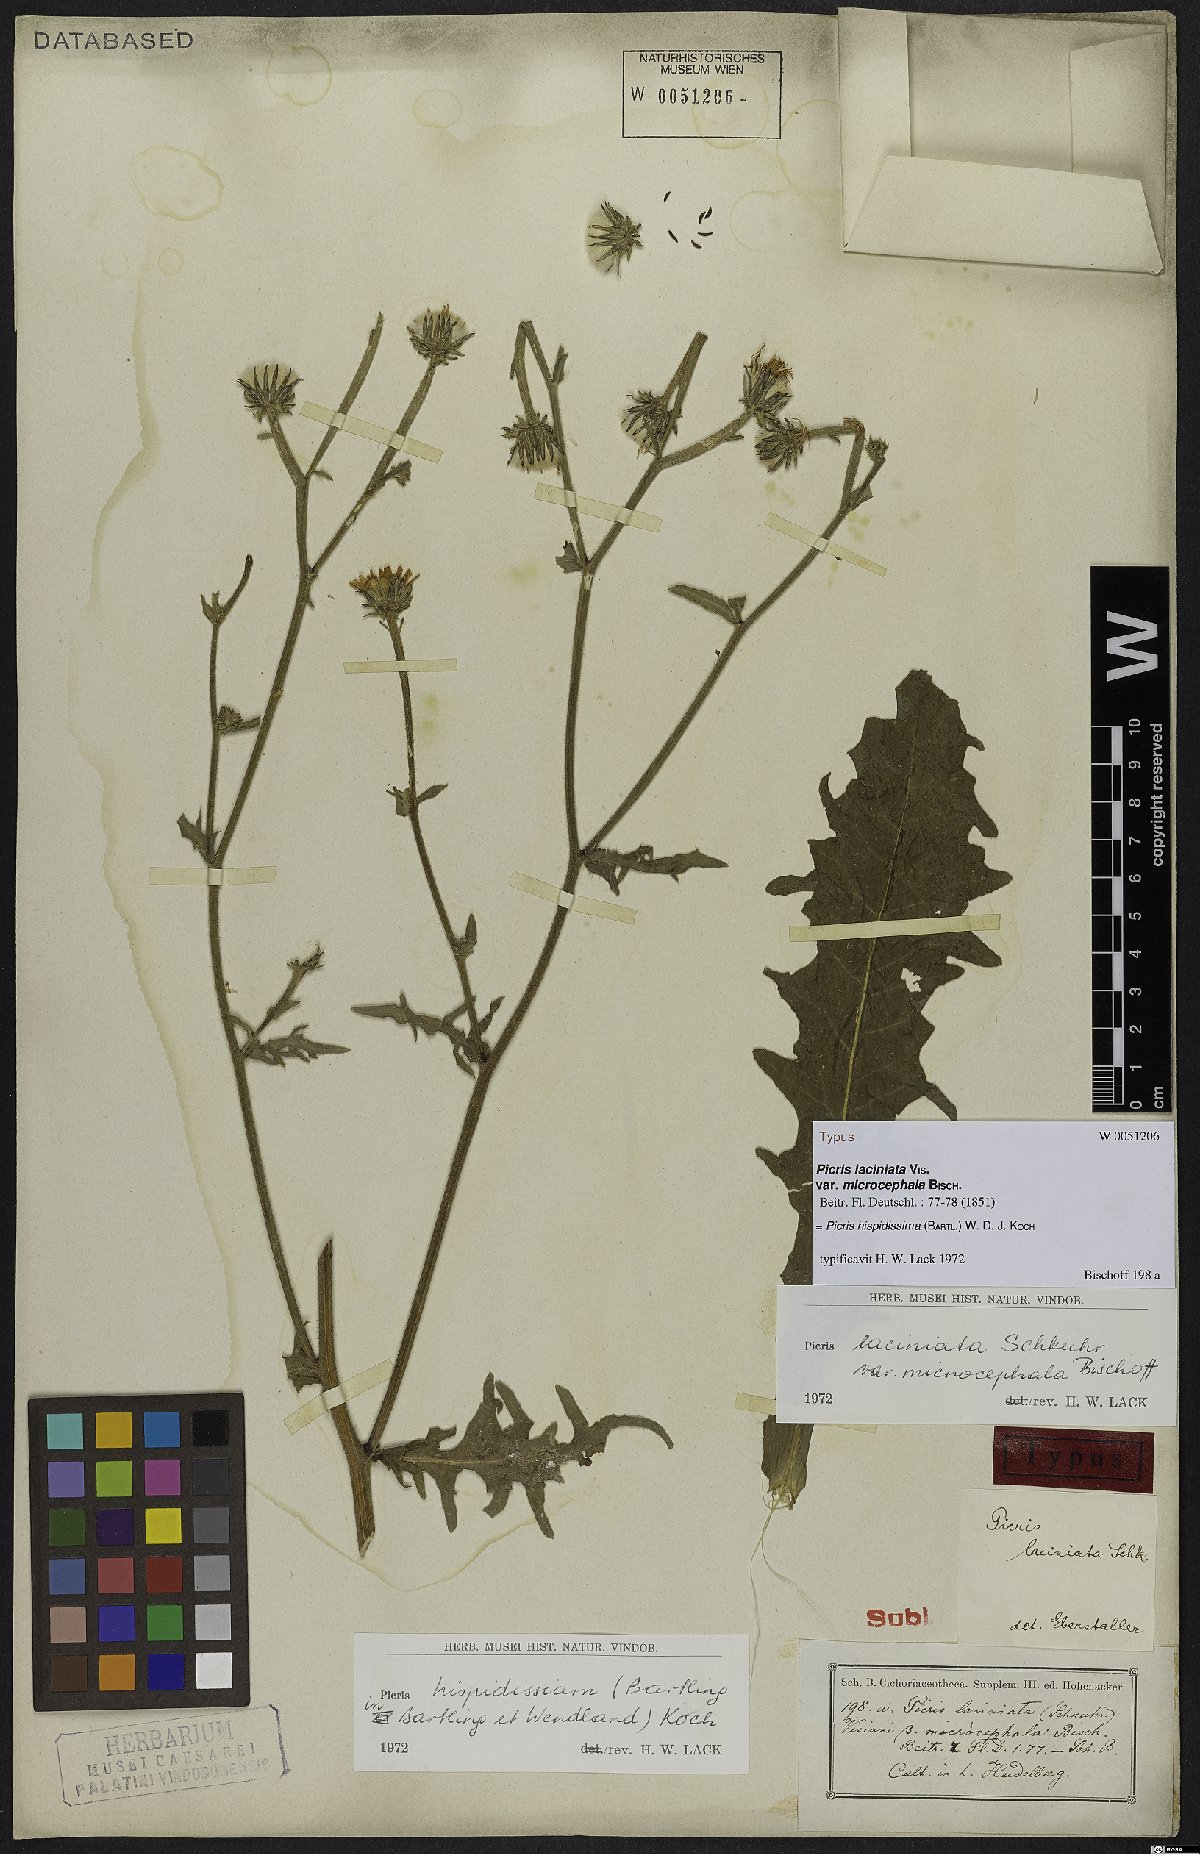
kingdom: Plantae
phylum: Tracheophyta
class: Magnoliopsida
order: Asterales
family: Asteraceae
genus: Picris
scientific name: Picris hispidissima
